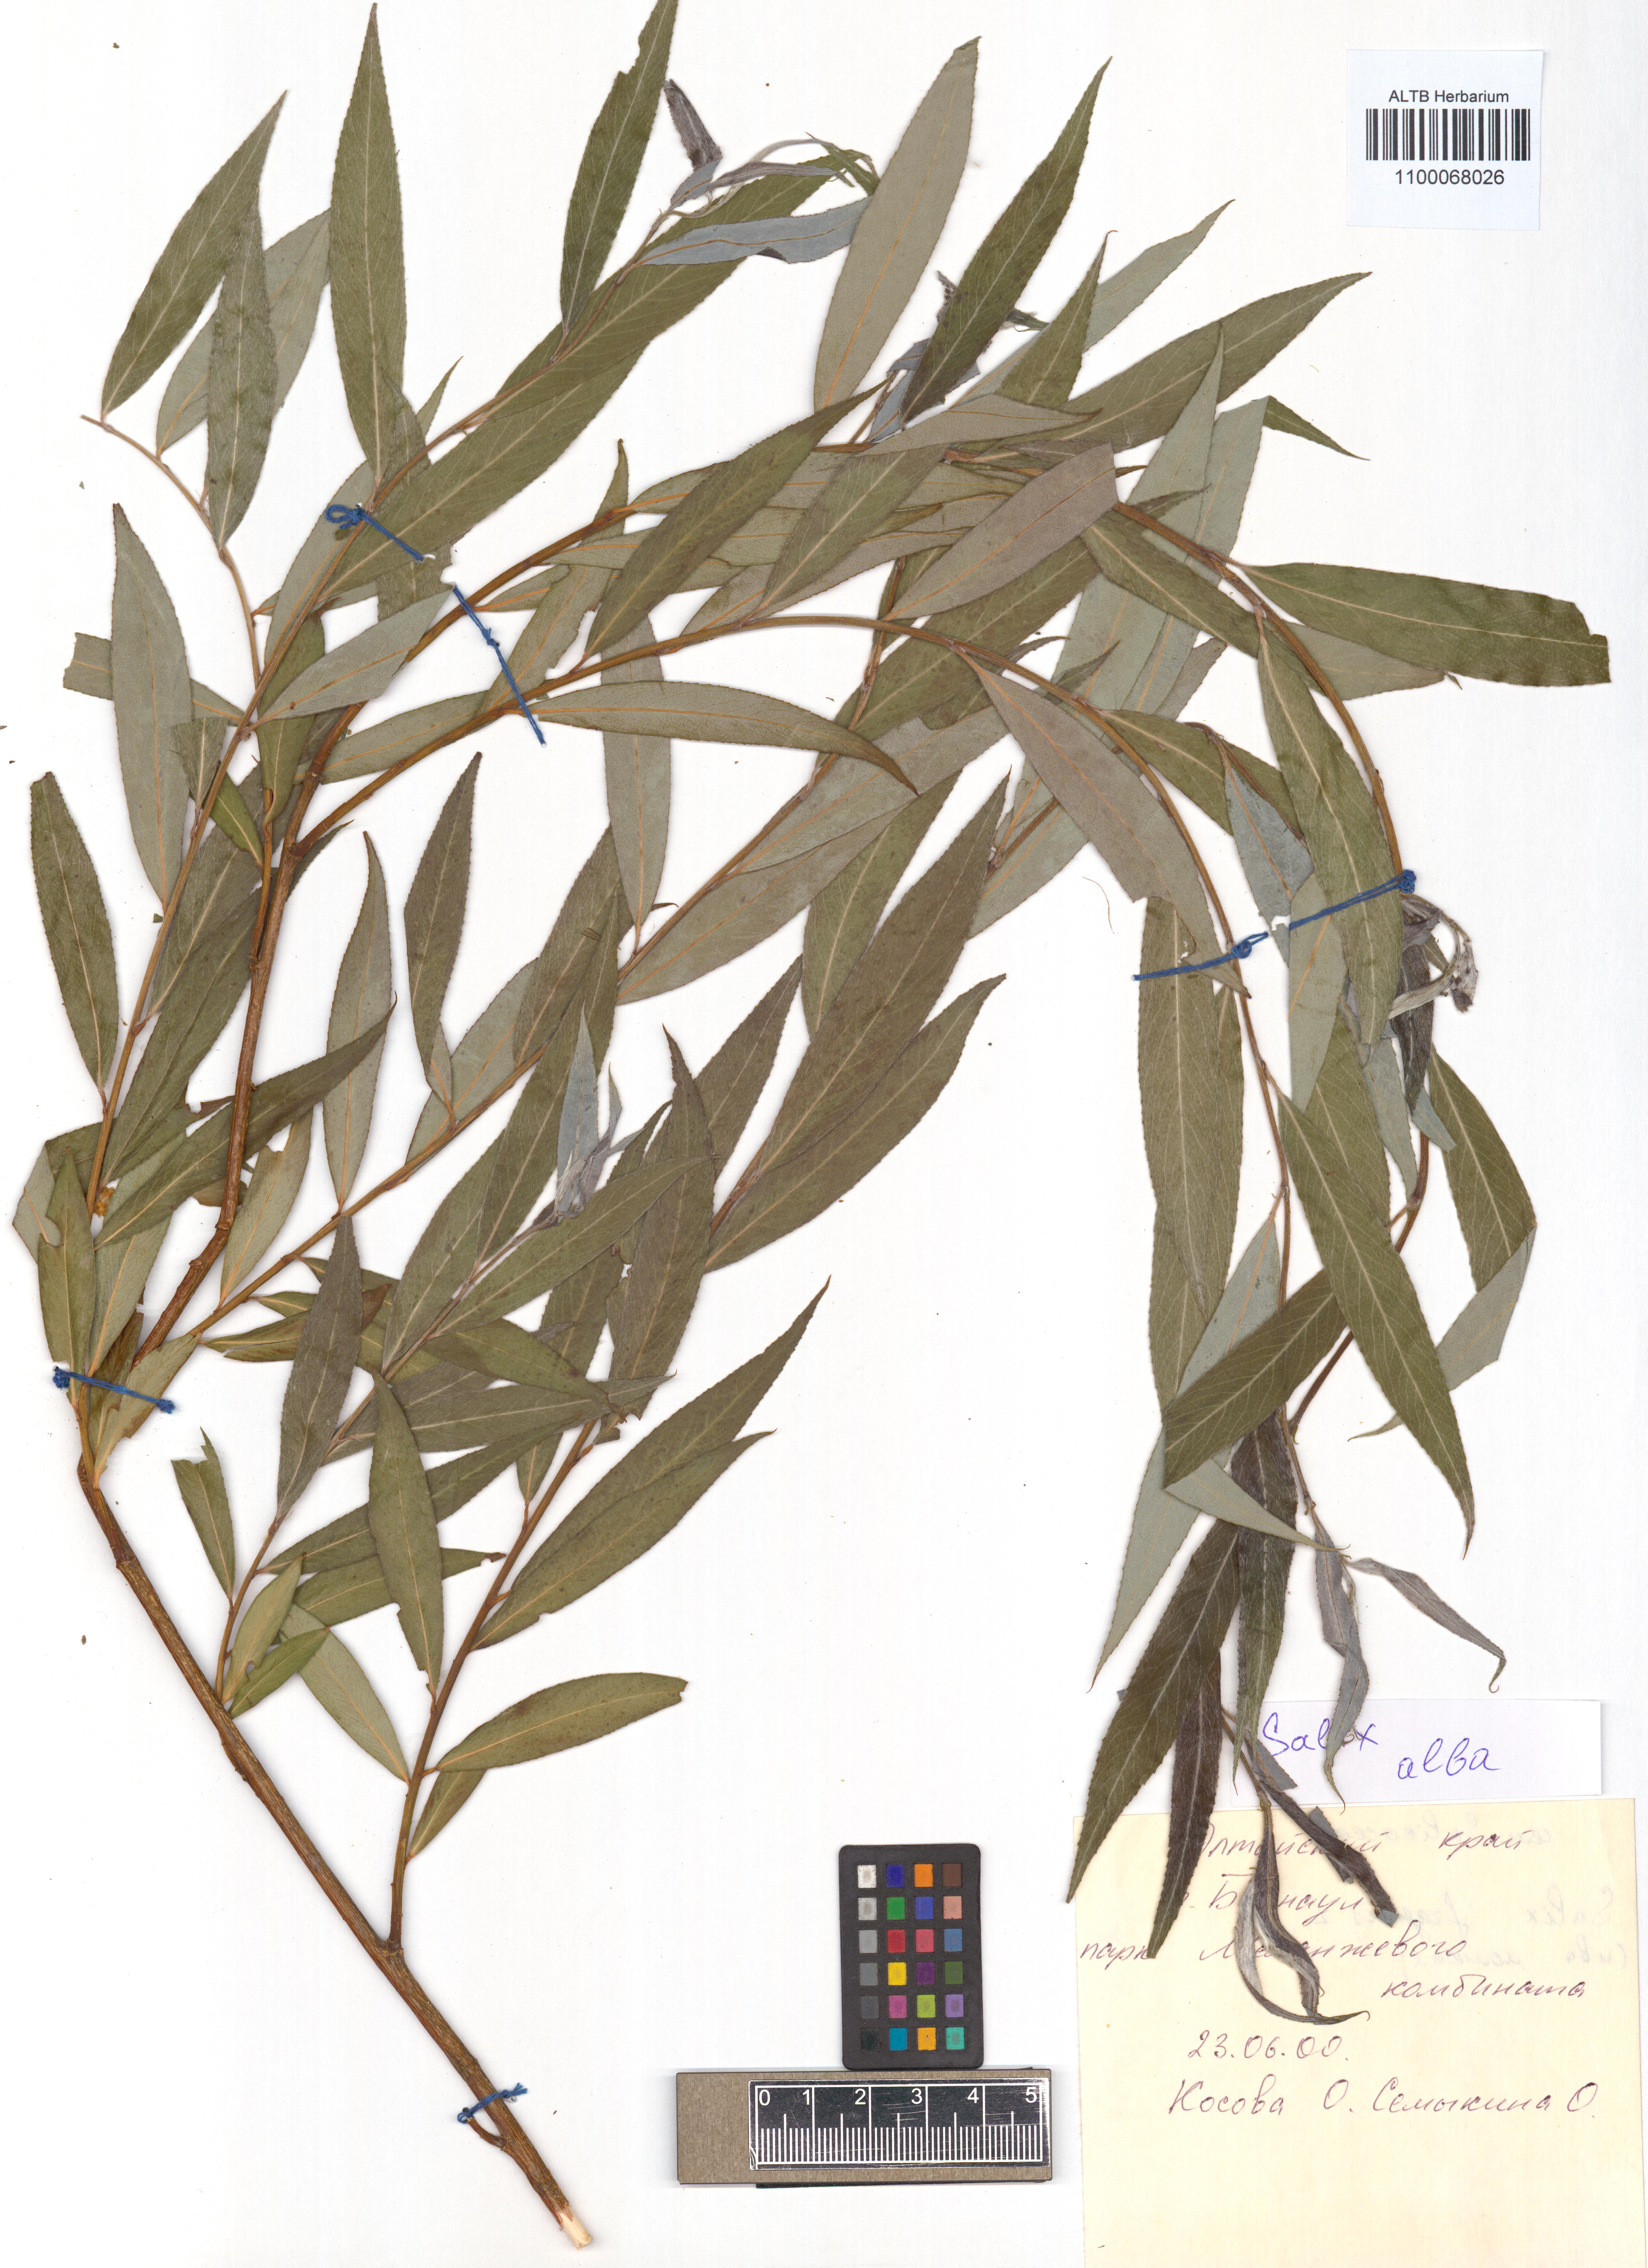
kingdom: Plantae
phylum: Tracheophyta
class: Magnoliopsida
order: Malpighiales
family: Salicaceae
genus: Salix
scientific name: Salix alba
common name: White willow
